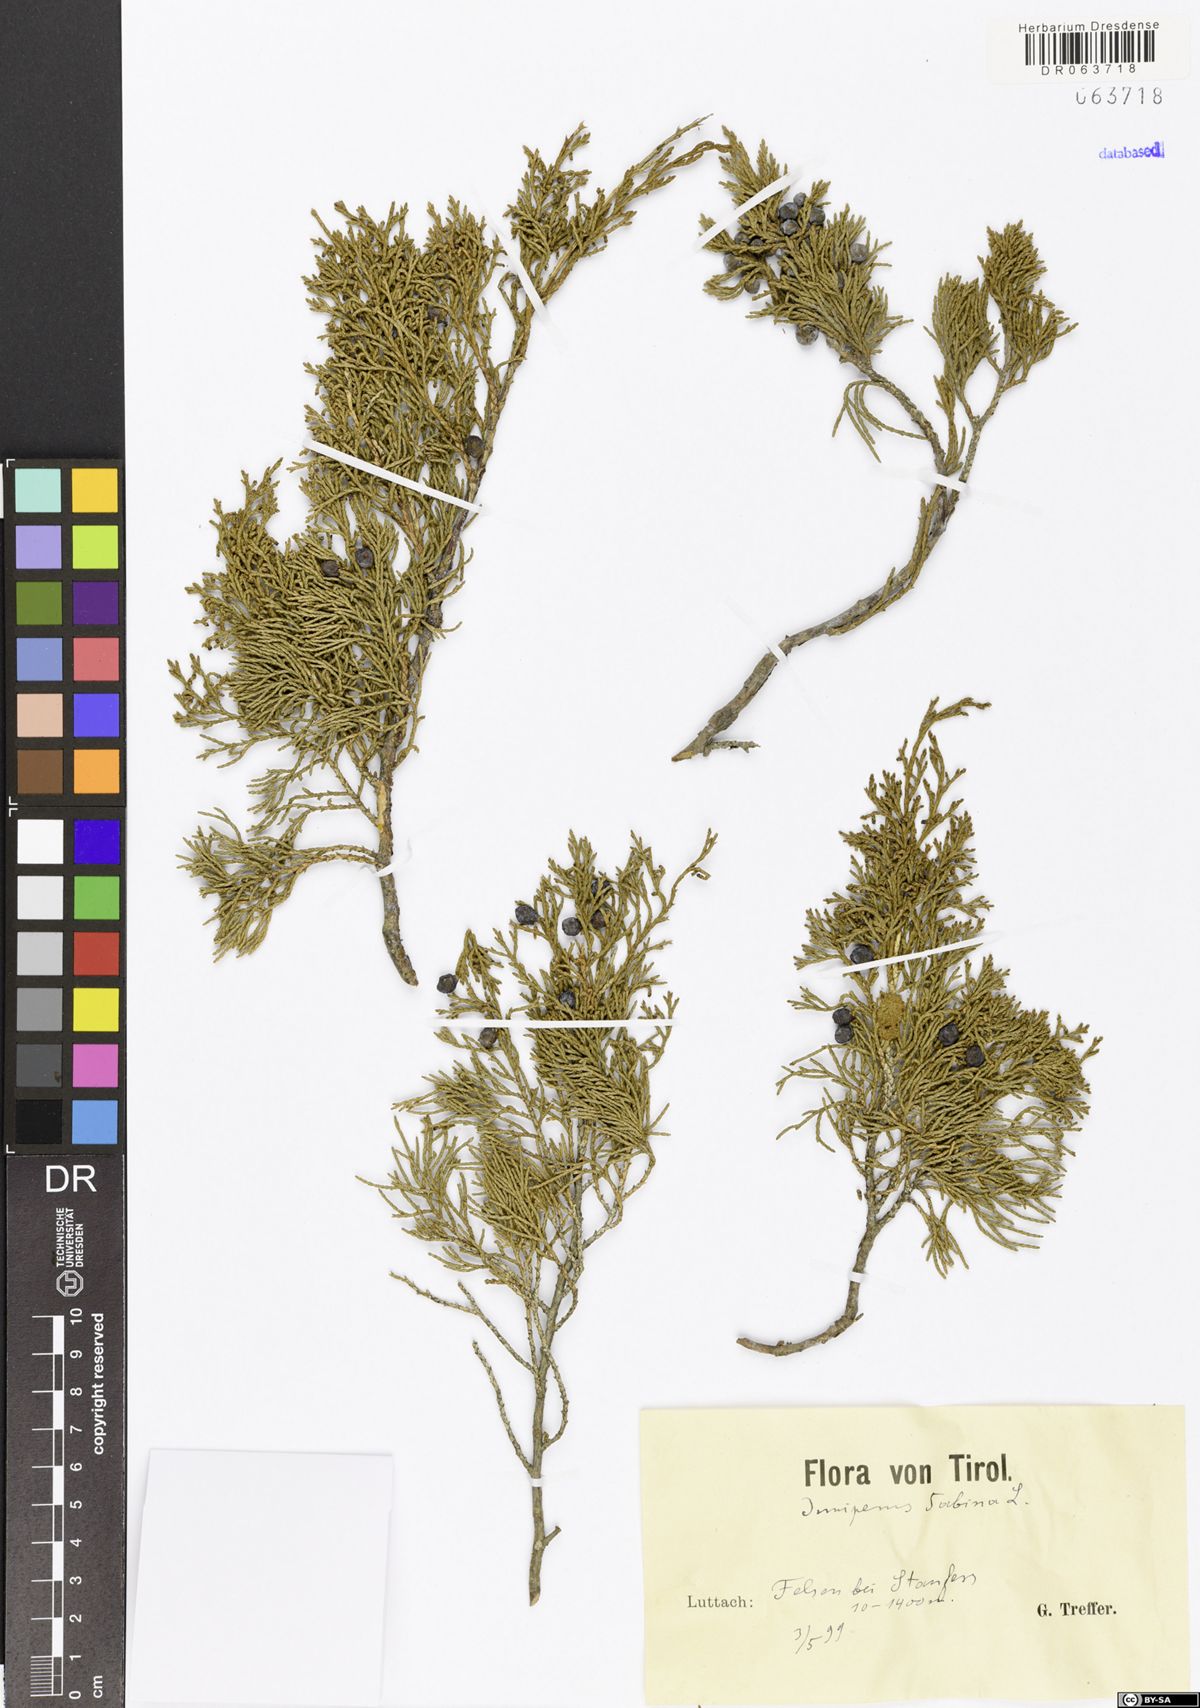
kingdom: Plantae
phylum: Tracheophyta
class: Pinopsida
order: Pinales
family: Cupressaceae
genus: Juniperus
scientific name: Juniperus sabina
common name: Savin
